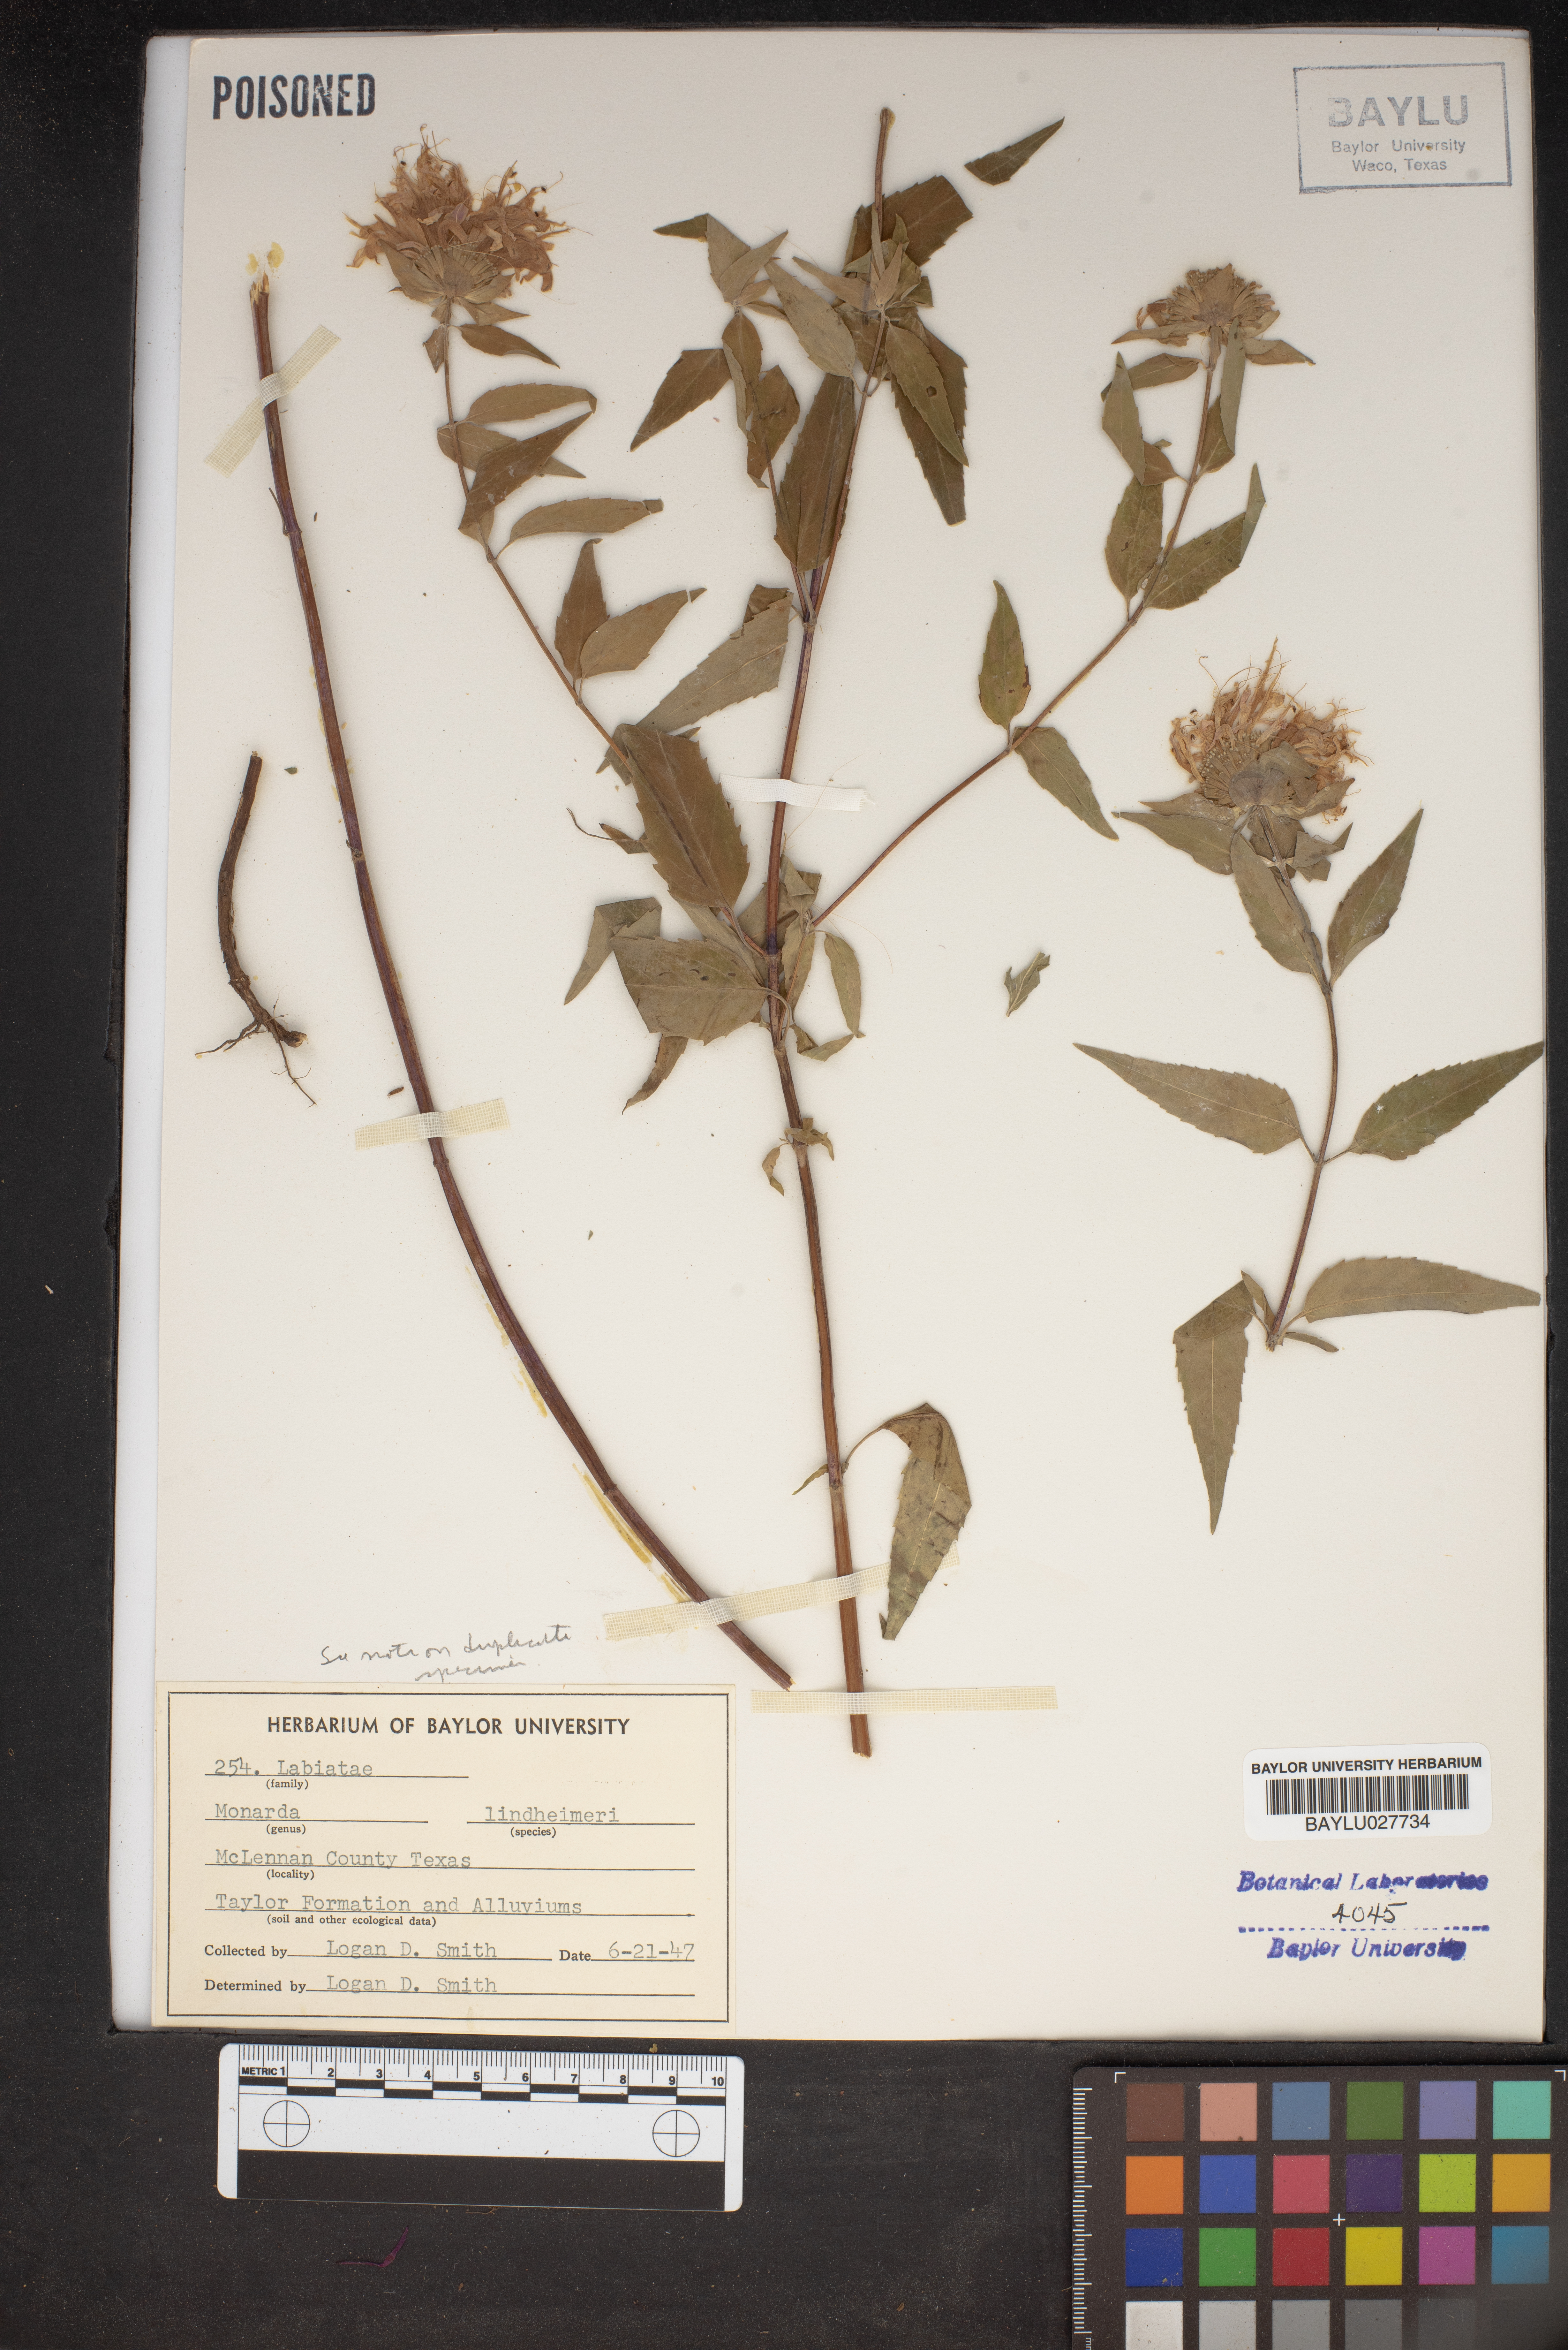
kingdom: Plantae
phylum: Tracheophyta
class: Magnoliopsida
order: Lamiales
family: Lamiaceae
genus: Monarda
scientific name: Monarda lindheimeri
